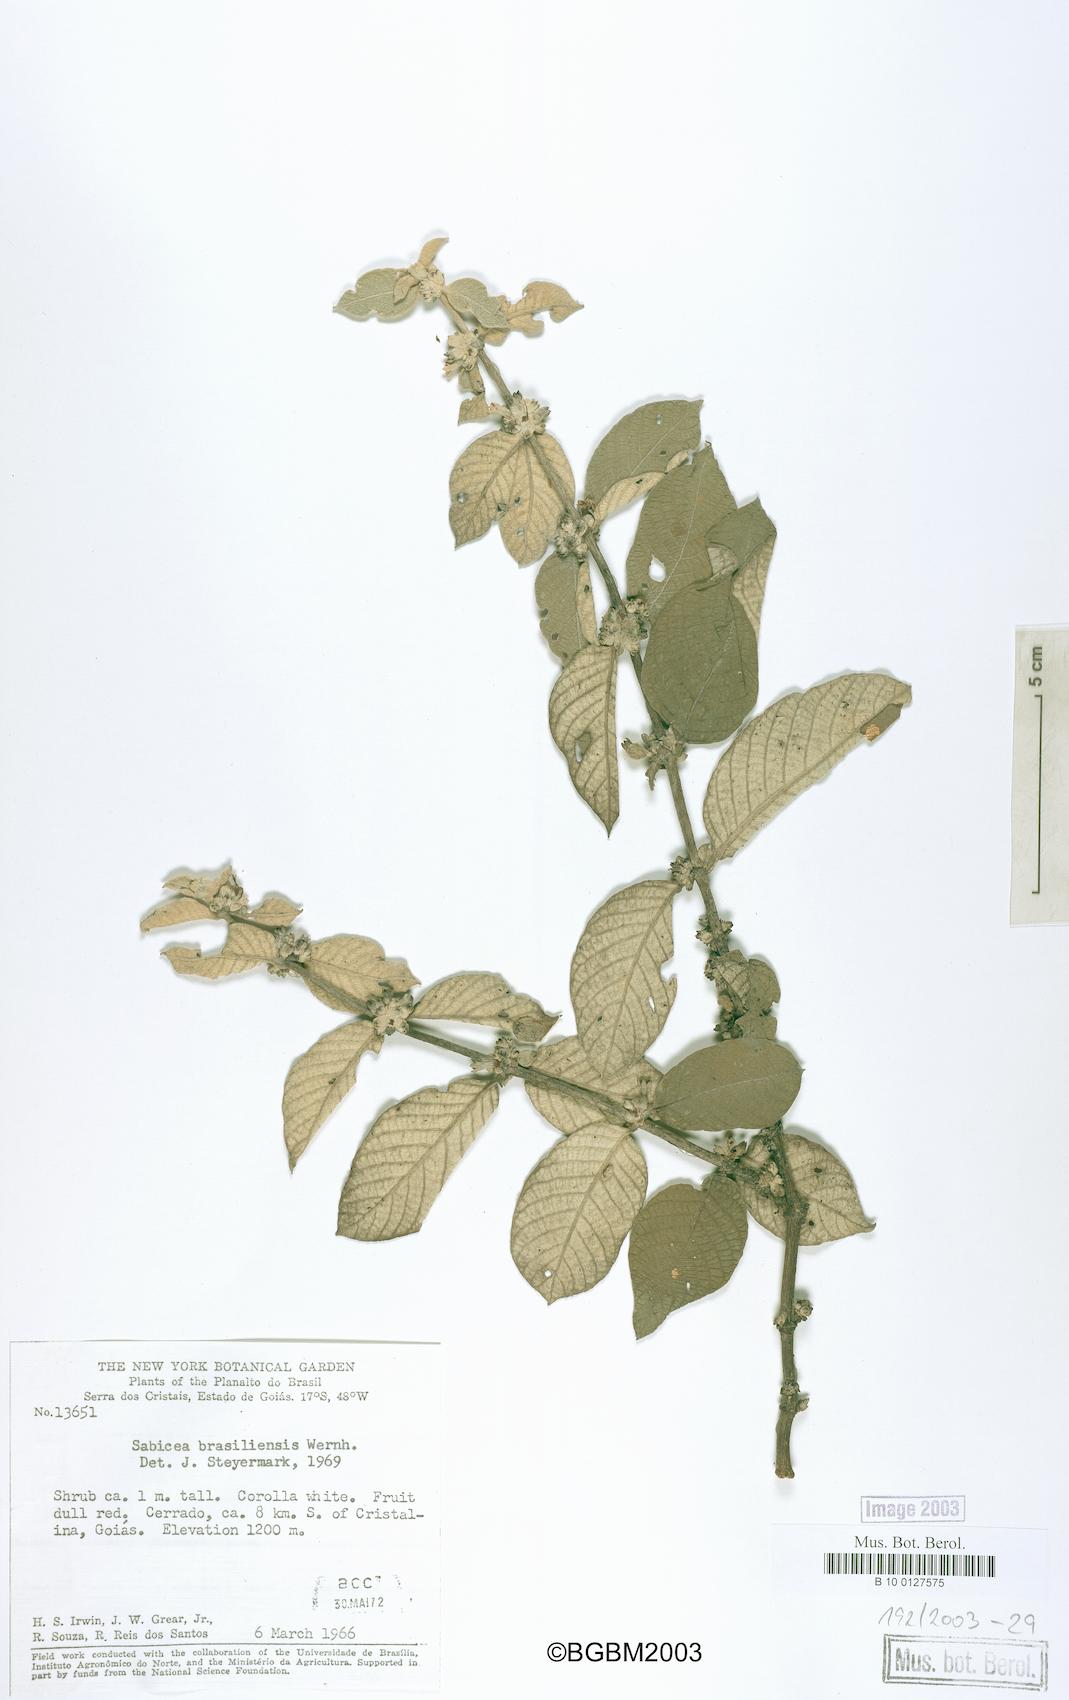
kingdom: Plantae
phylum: Tracheophyta
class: Magnoliopsida
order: Gentianales
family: Rubiaceae
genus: Sabicea
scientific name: Sabicea brasiliensis
